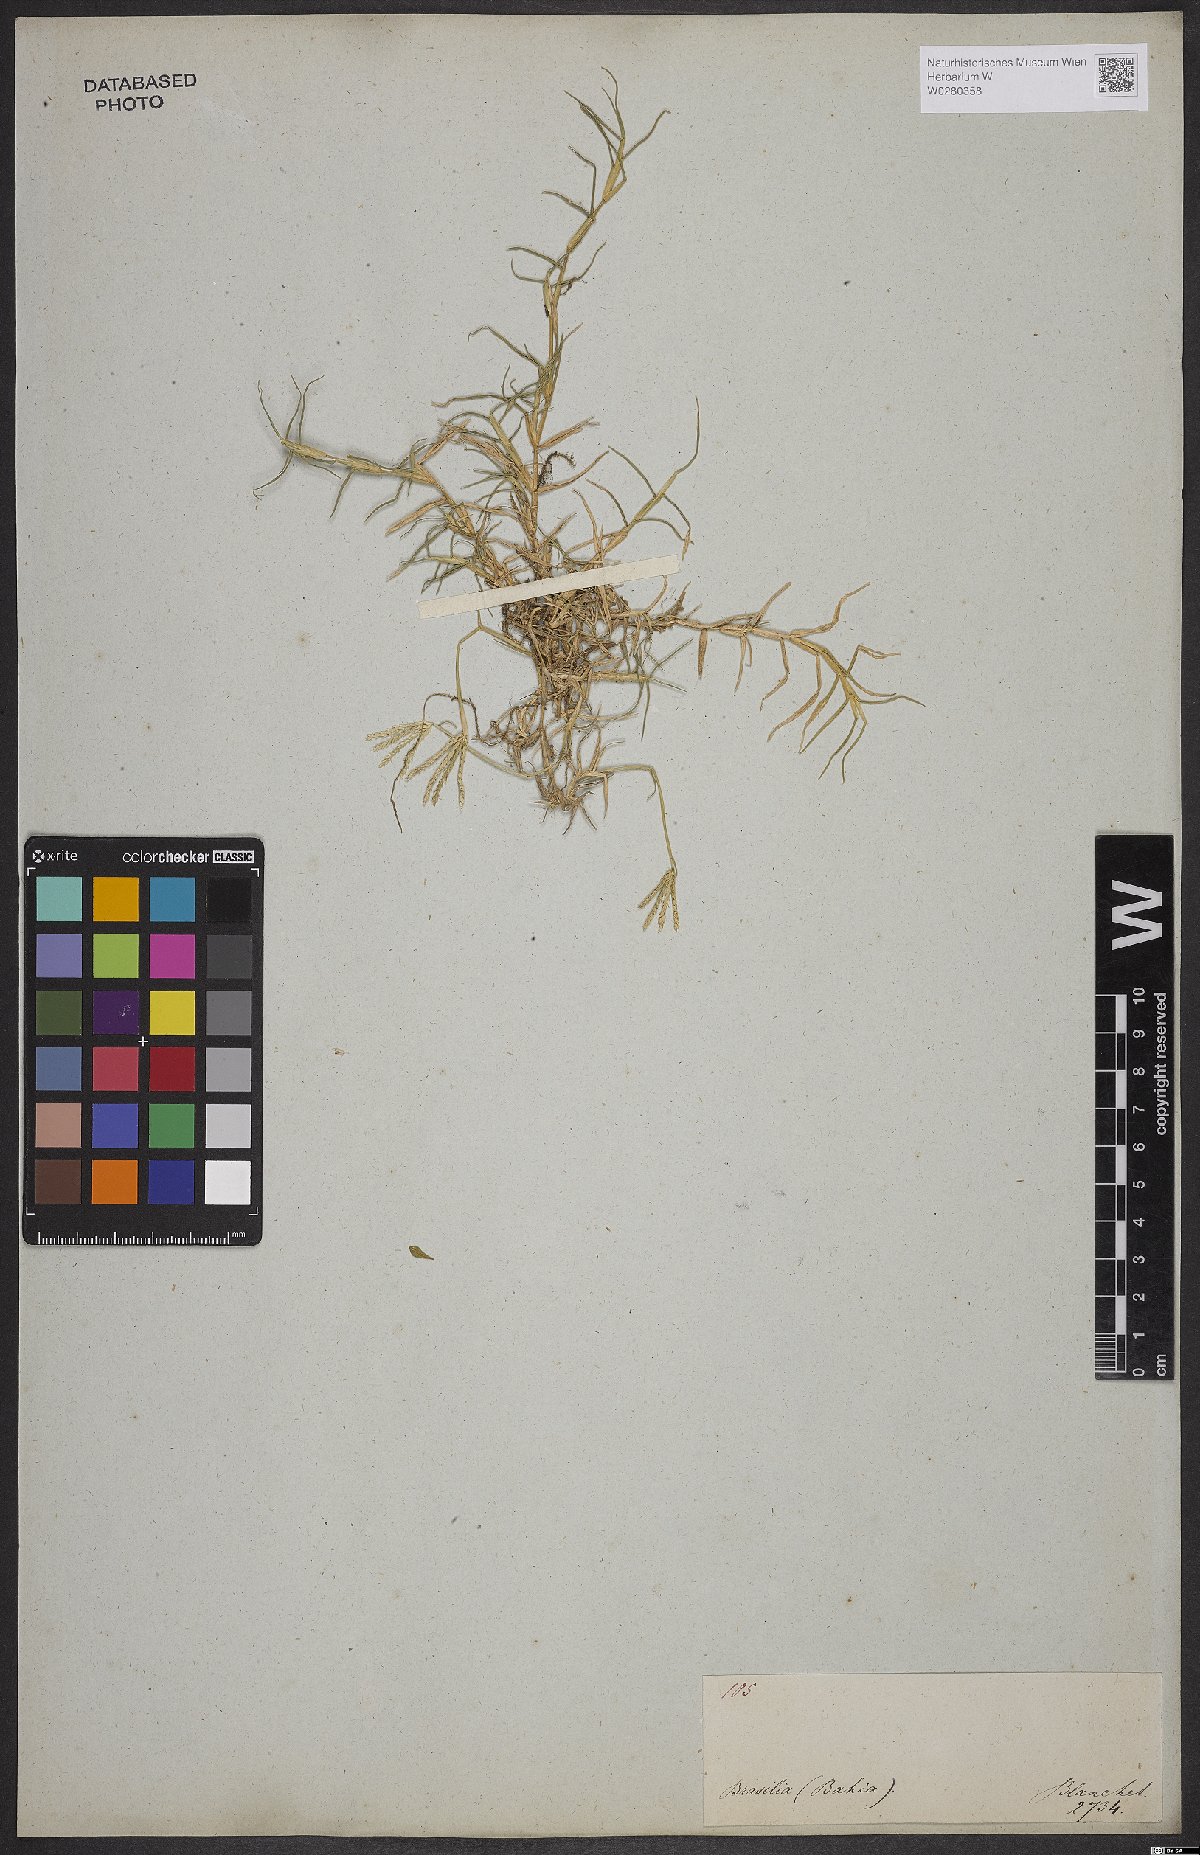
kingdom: Plantae
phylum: Tracheophyta
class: Liliopsida
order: Poales
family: Poaceae
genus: Cynodon
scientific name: Cynodon dactylon
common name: Bermuda grass
